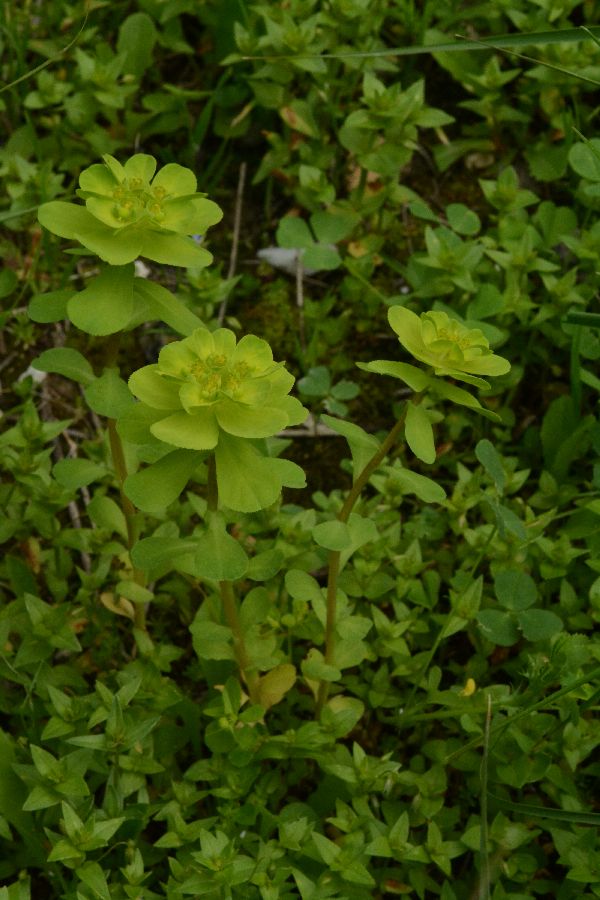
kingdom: Plantae
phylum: Tracheophyta
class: Magnoliopsida
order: Malpighiales
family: Euphorbiaceae
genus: Euphorbia
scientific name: Euphorbia helioscopia
